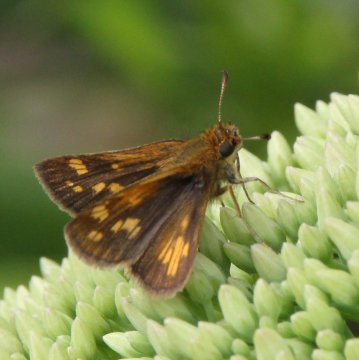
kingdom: Animalia
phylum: Arthropoda
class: Insecta
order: Lepidoptera
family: Hesperiidae
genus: Polites
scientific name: Polites coras
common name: Peck's Skipper
